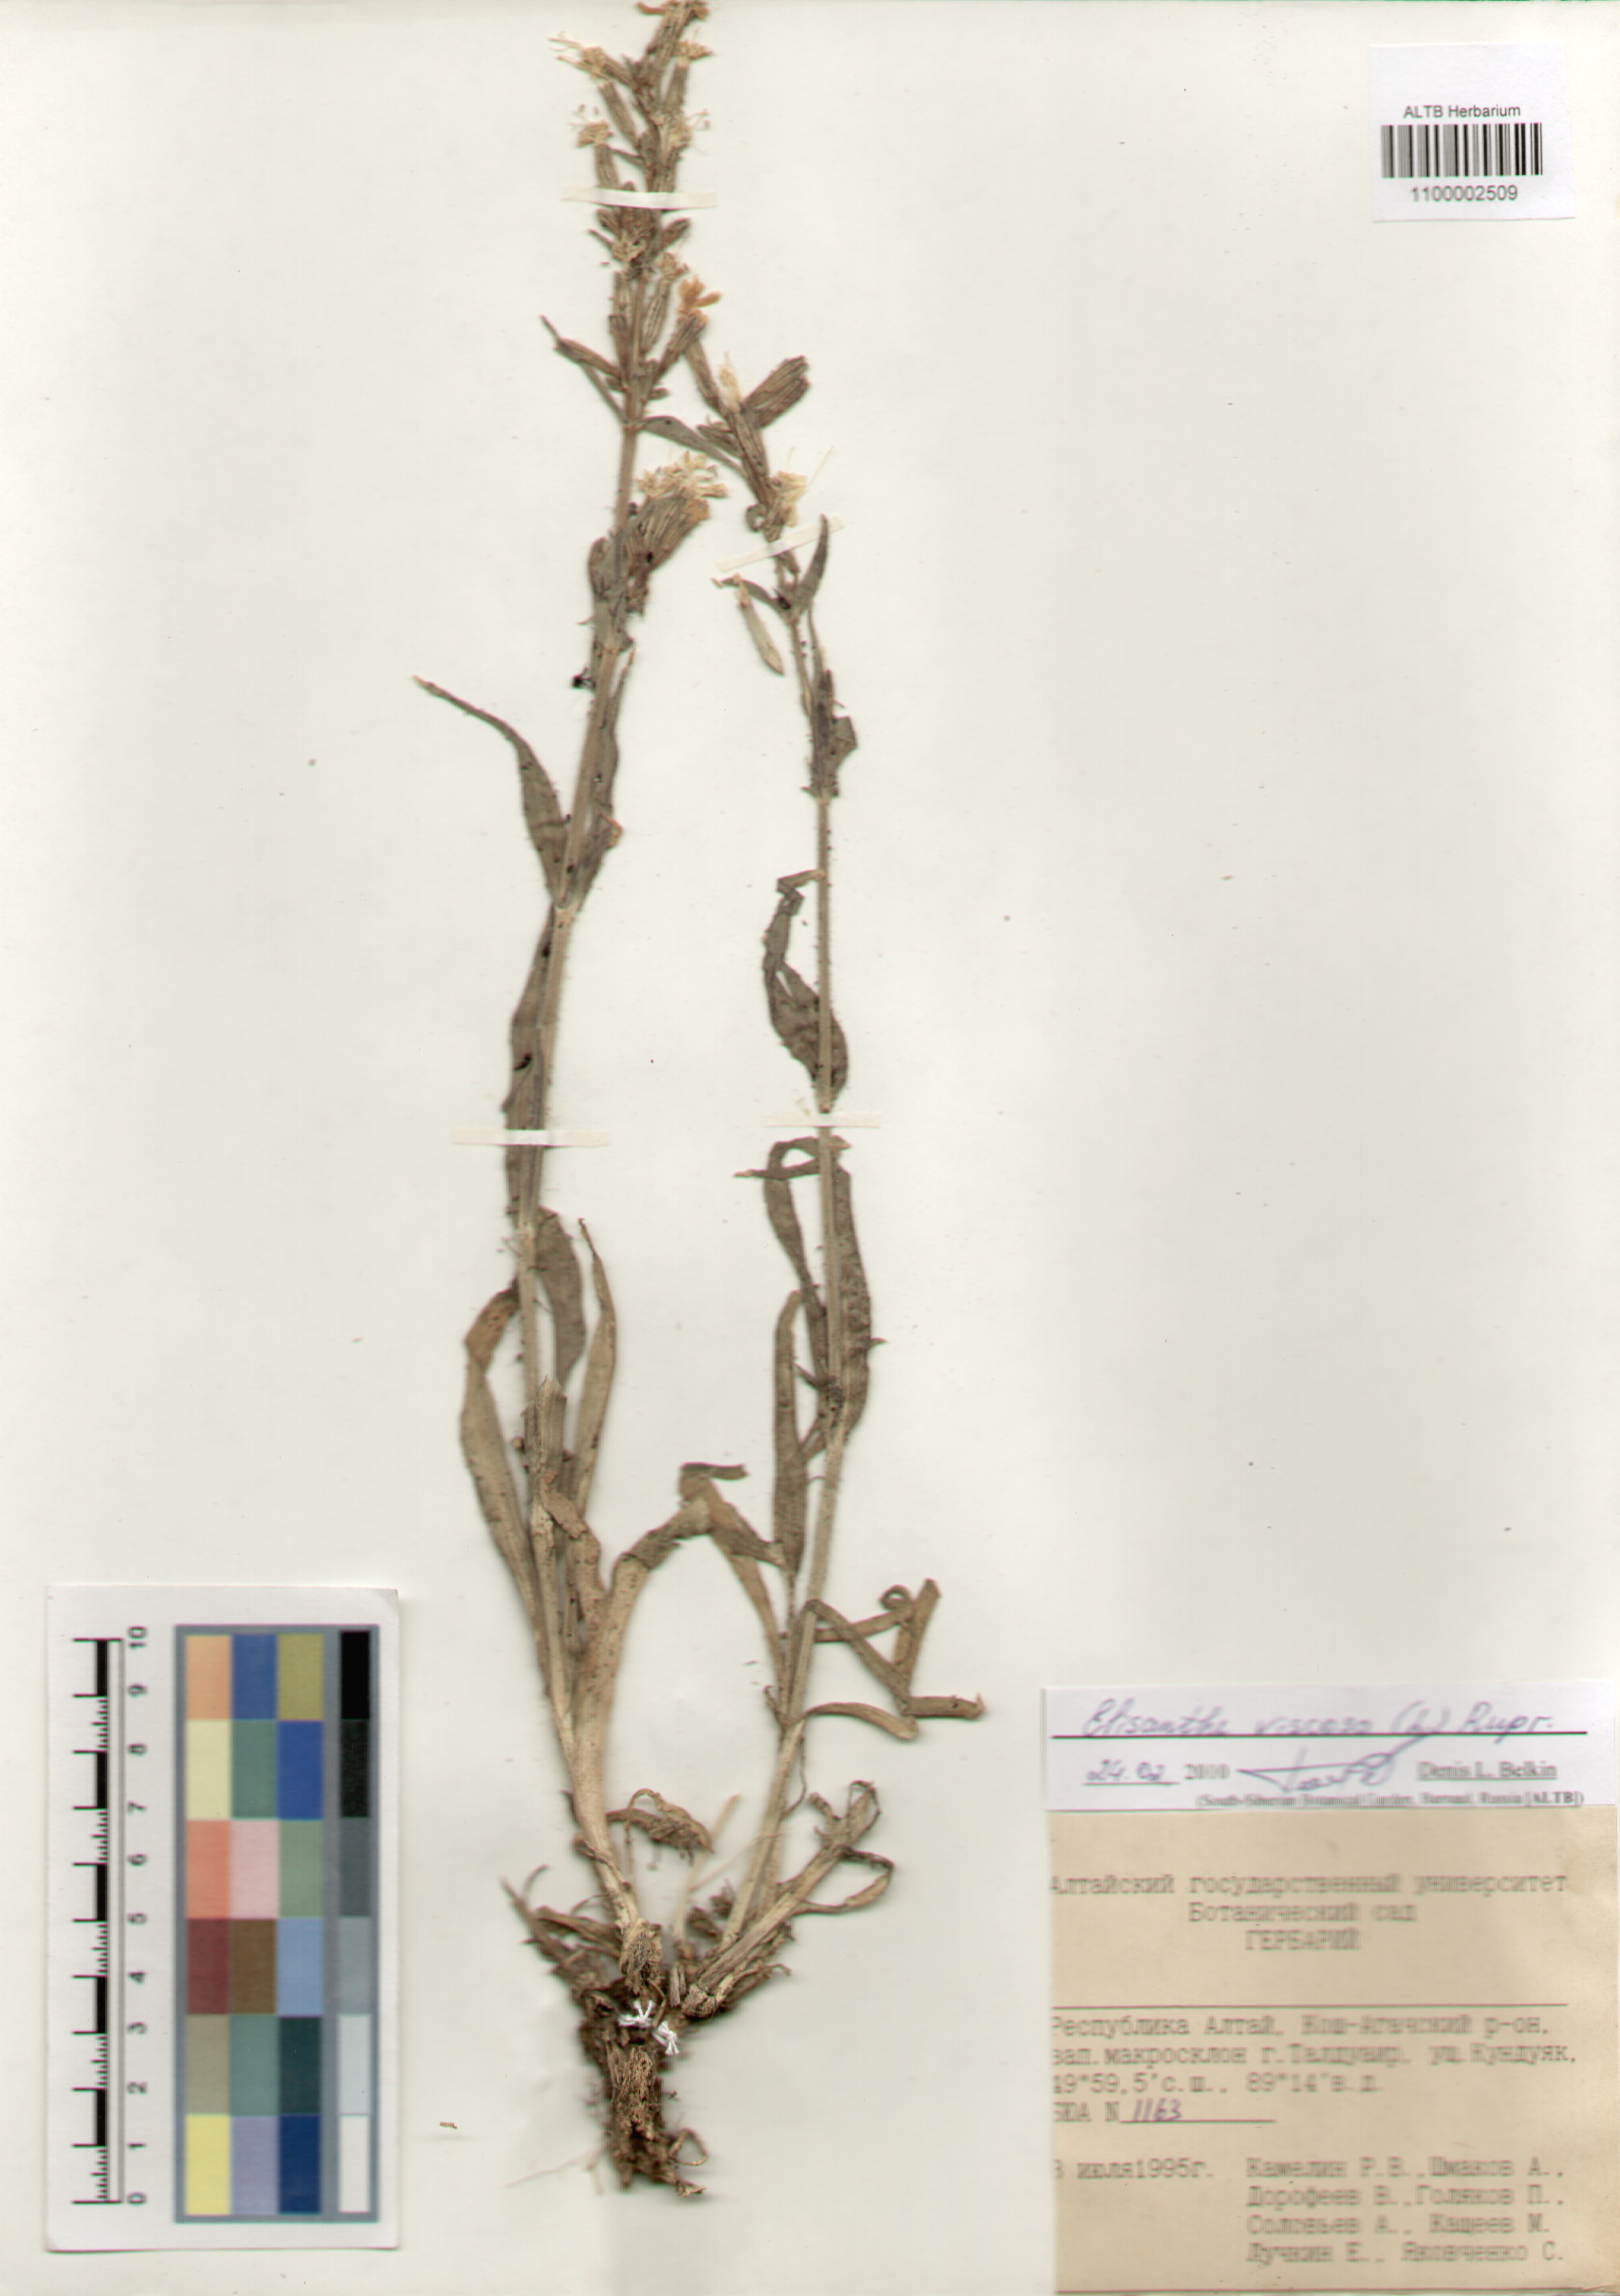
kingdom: Plantae
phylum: Tracheophyta
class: Magnoliopsida
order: Caryophyllales
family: Caryophyllaceae
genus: Silene
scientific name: Silene viscosa
